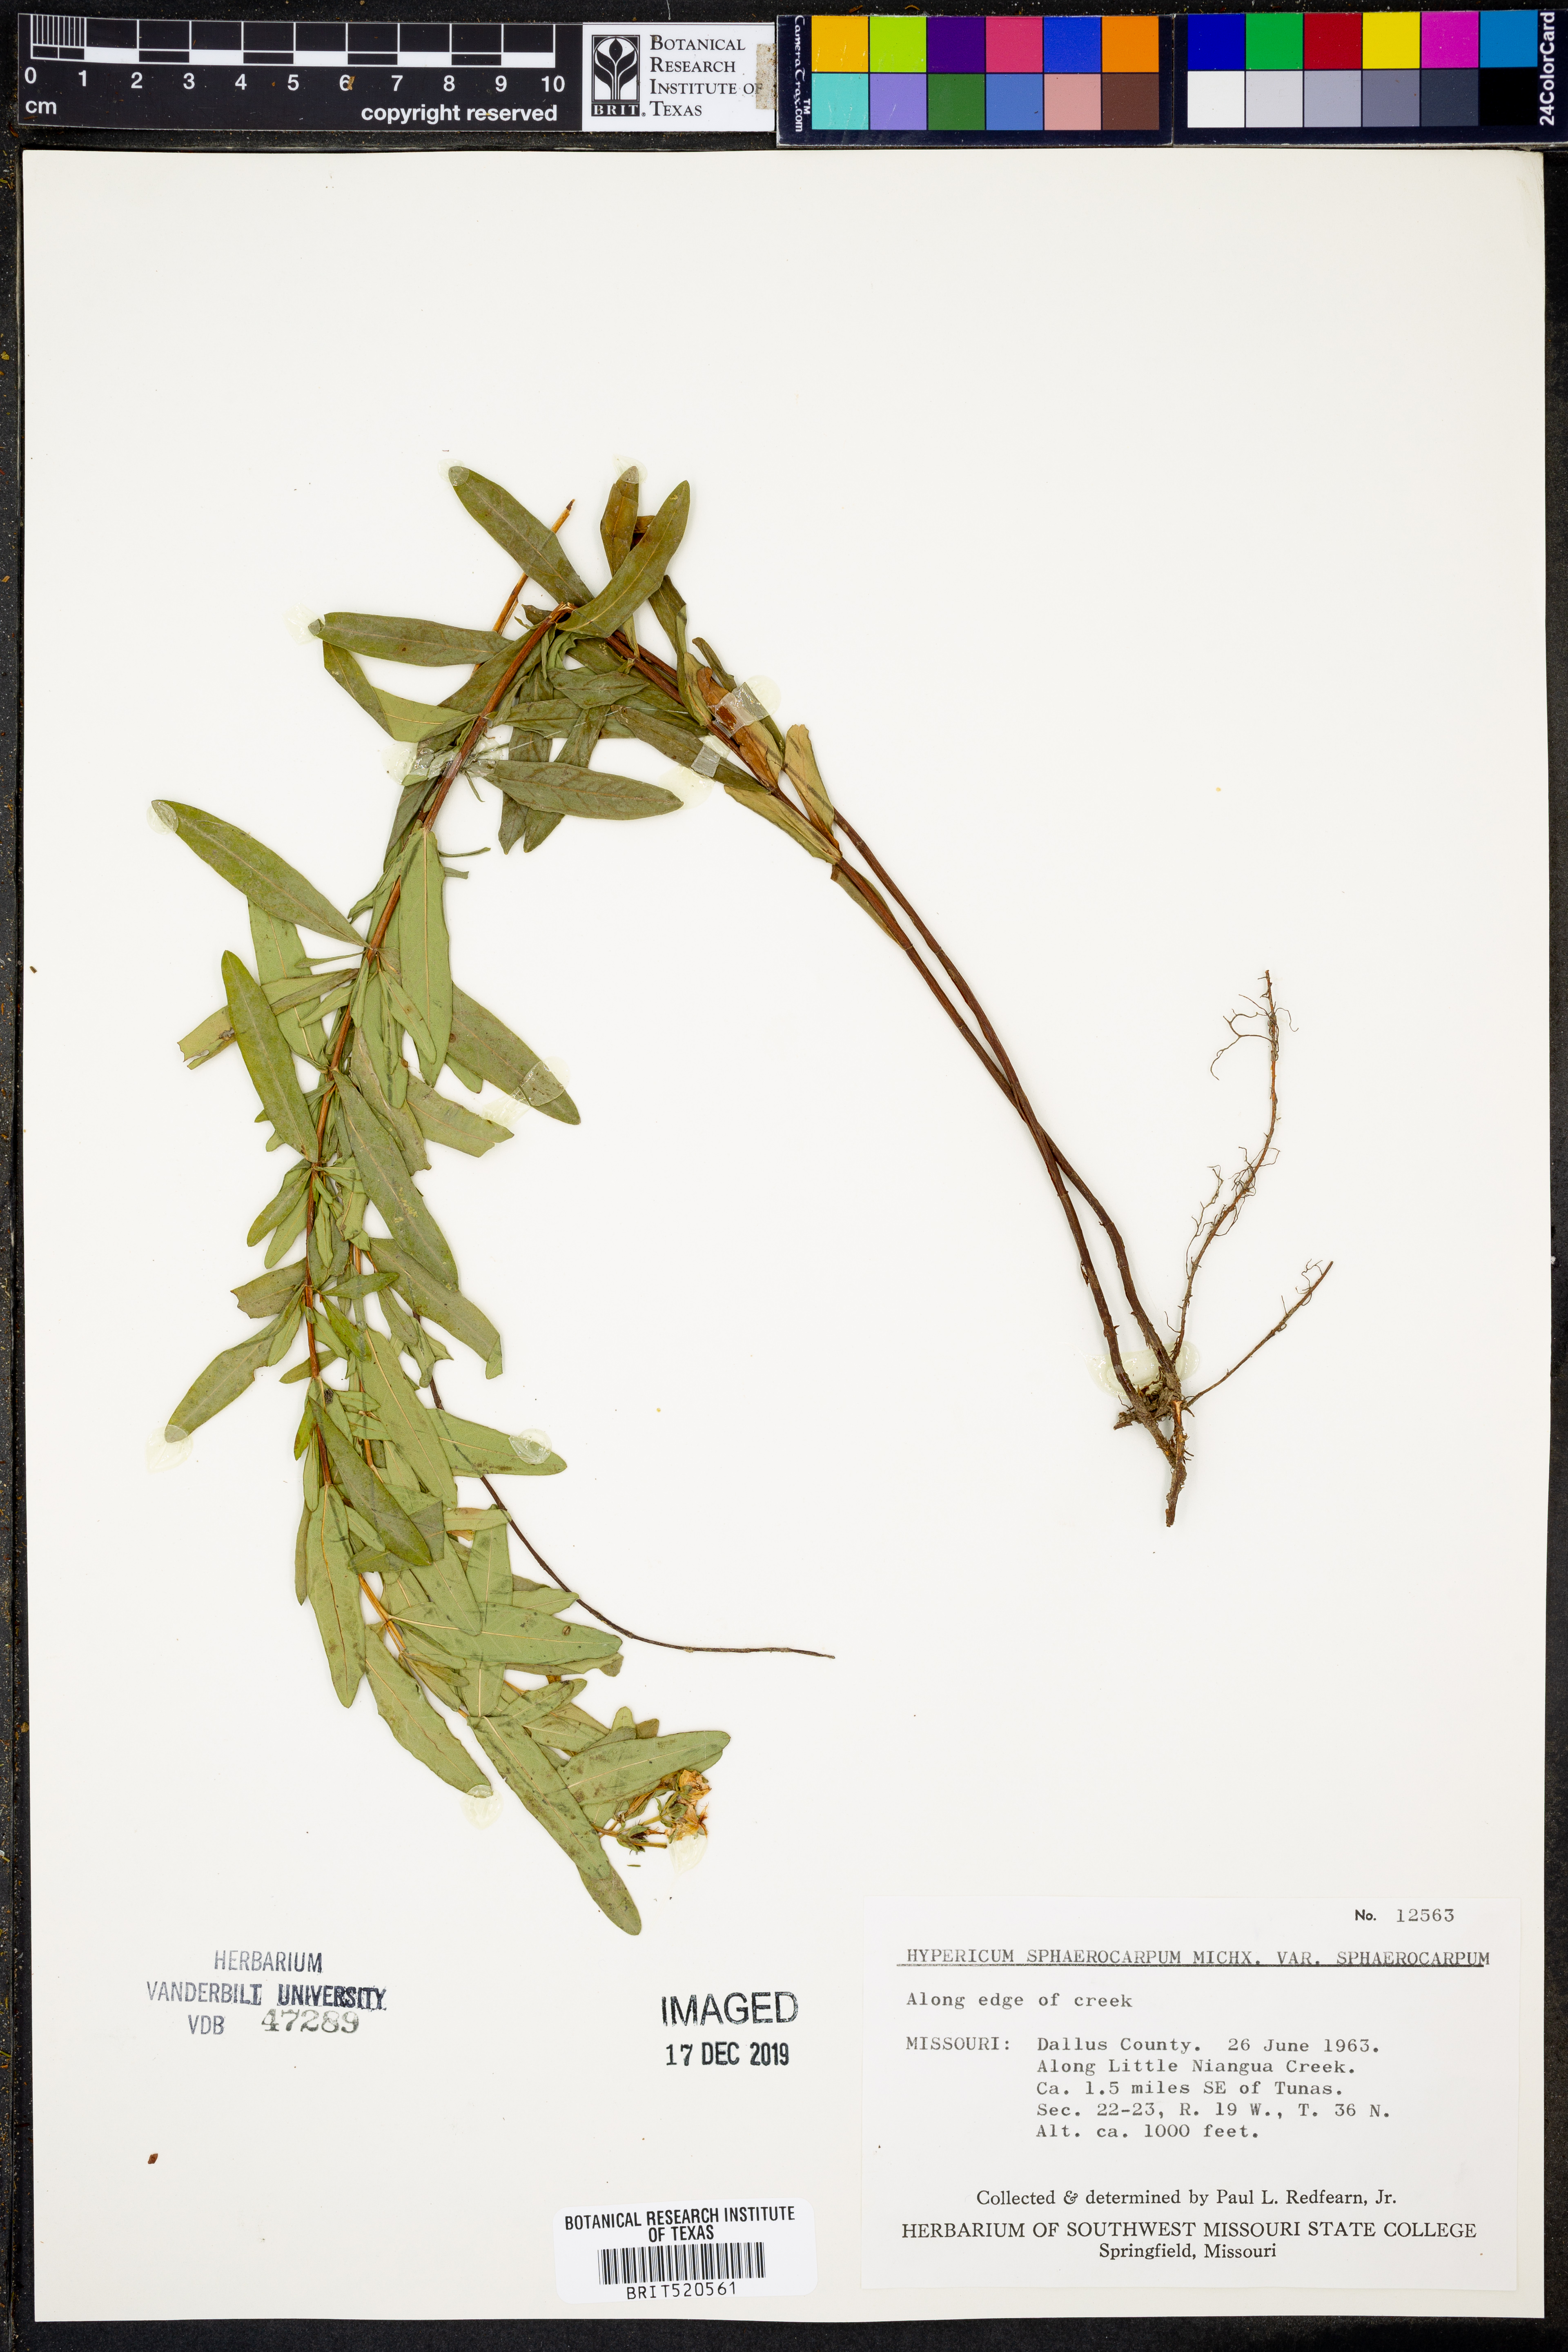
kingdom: Plantae
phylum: Tracheophyta
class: Magnoliopsida
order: Malpighiales
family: Hypericaceae
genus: Hypericum
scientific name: Hypericum sphaerocarpum
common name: Round-fruited st. john's-wort
